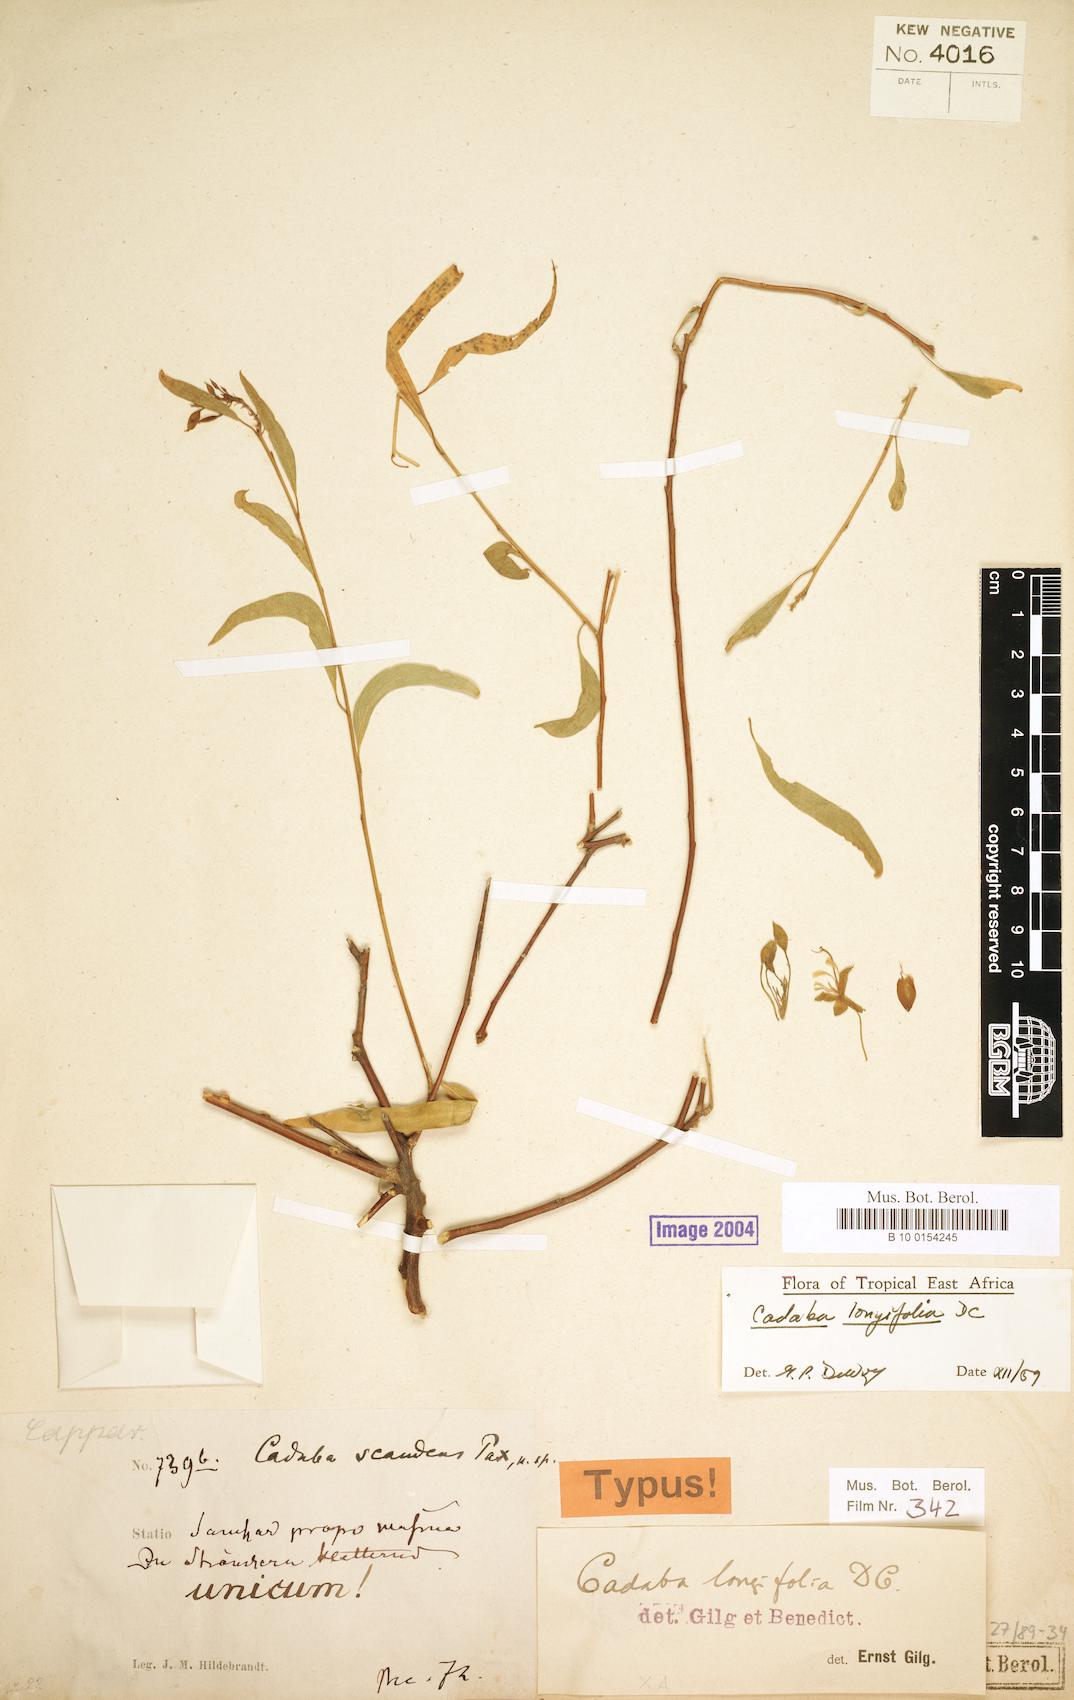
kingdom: Plantae
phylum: Tracheophyta
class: Magnoliopsida
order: Brassicales
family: Capparaceae
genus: Cadaba
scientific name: Cadaba longifolia
